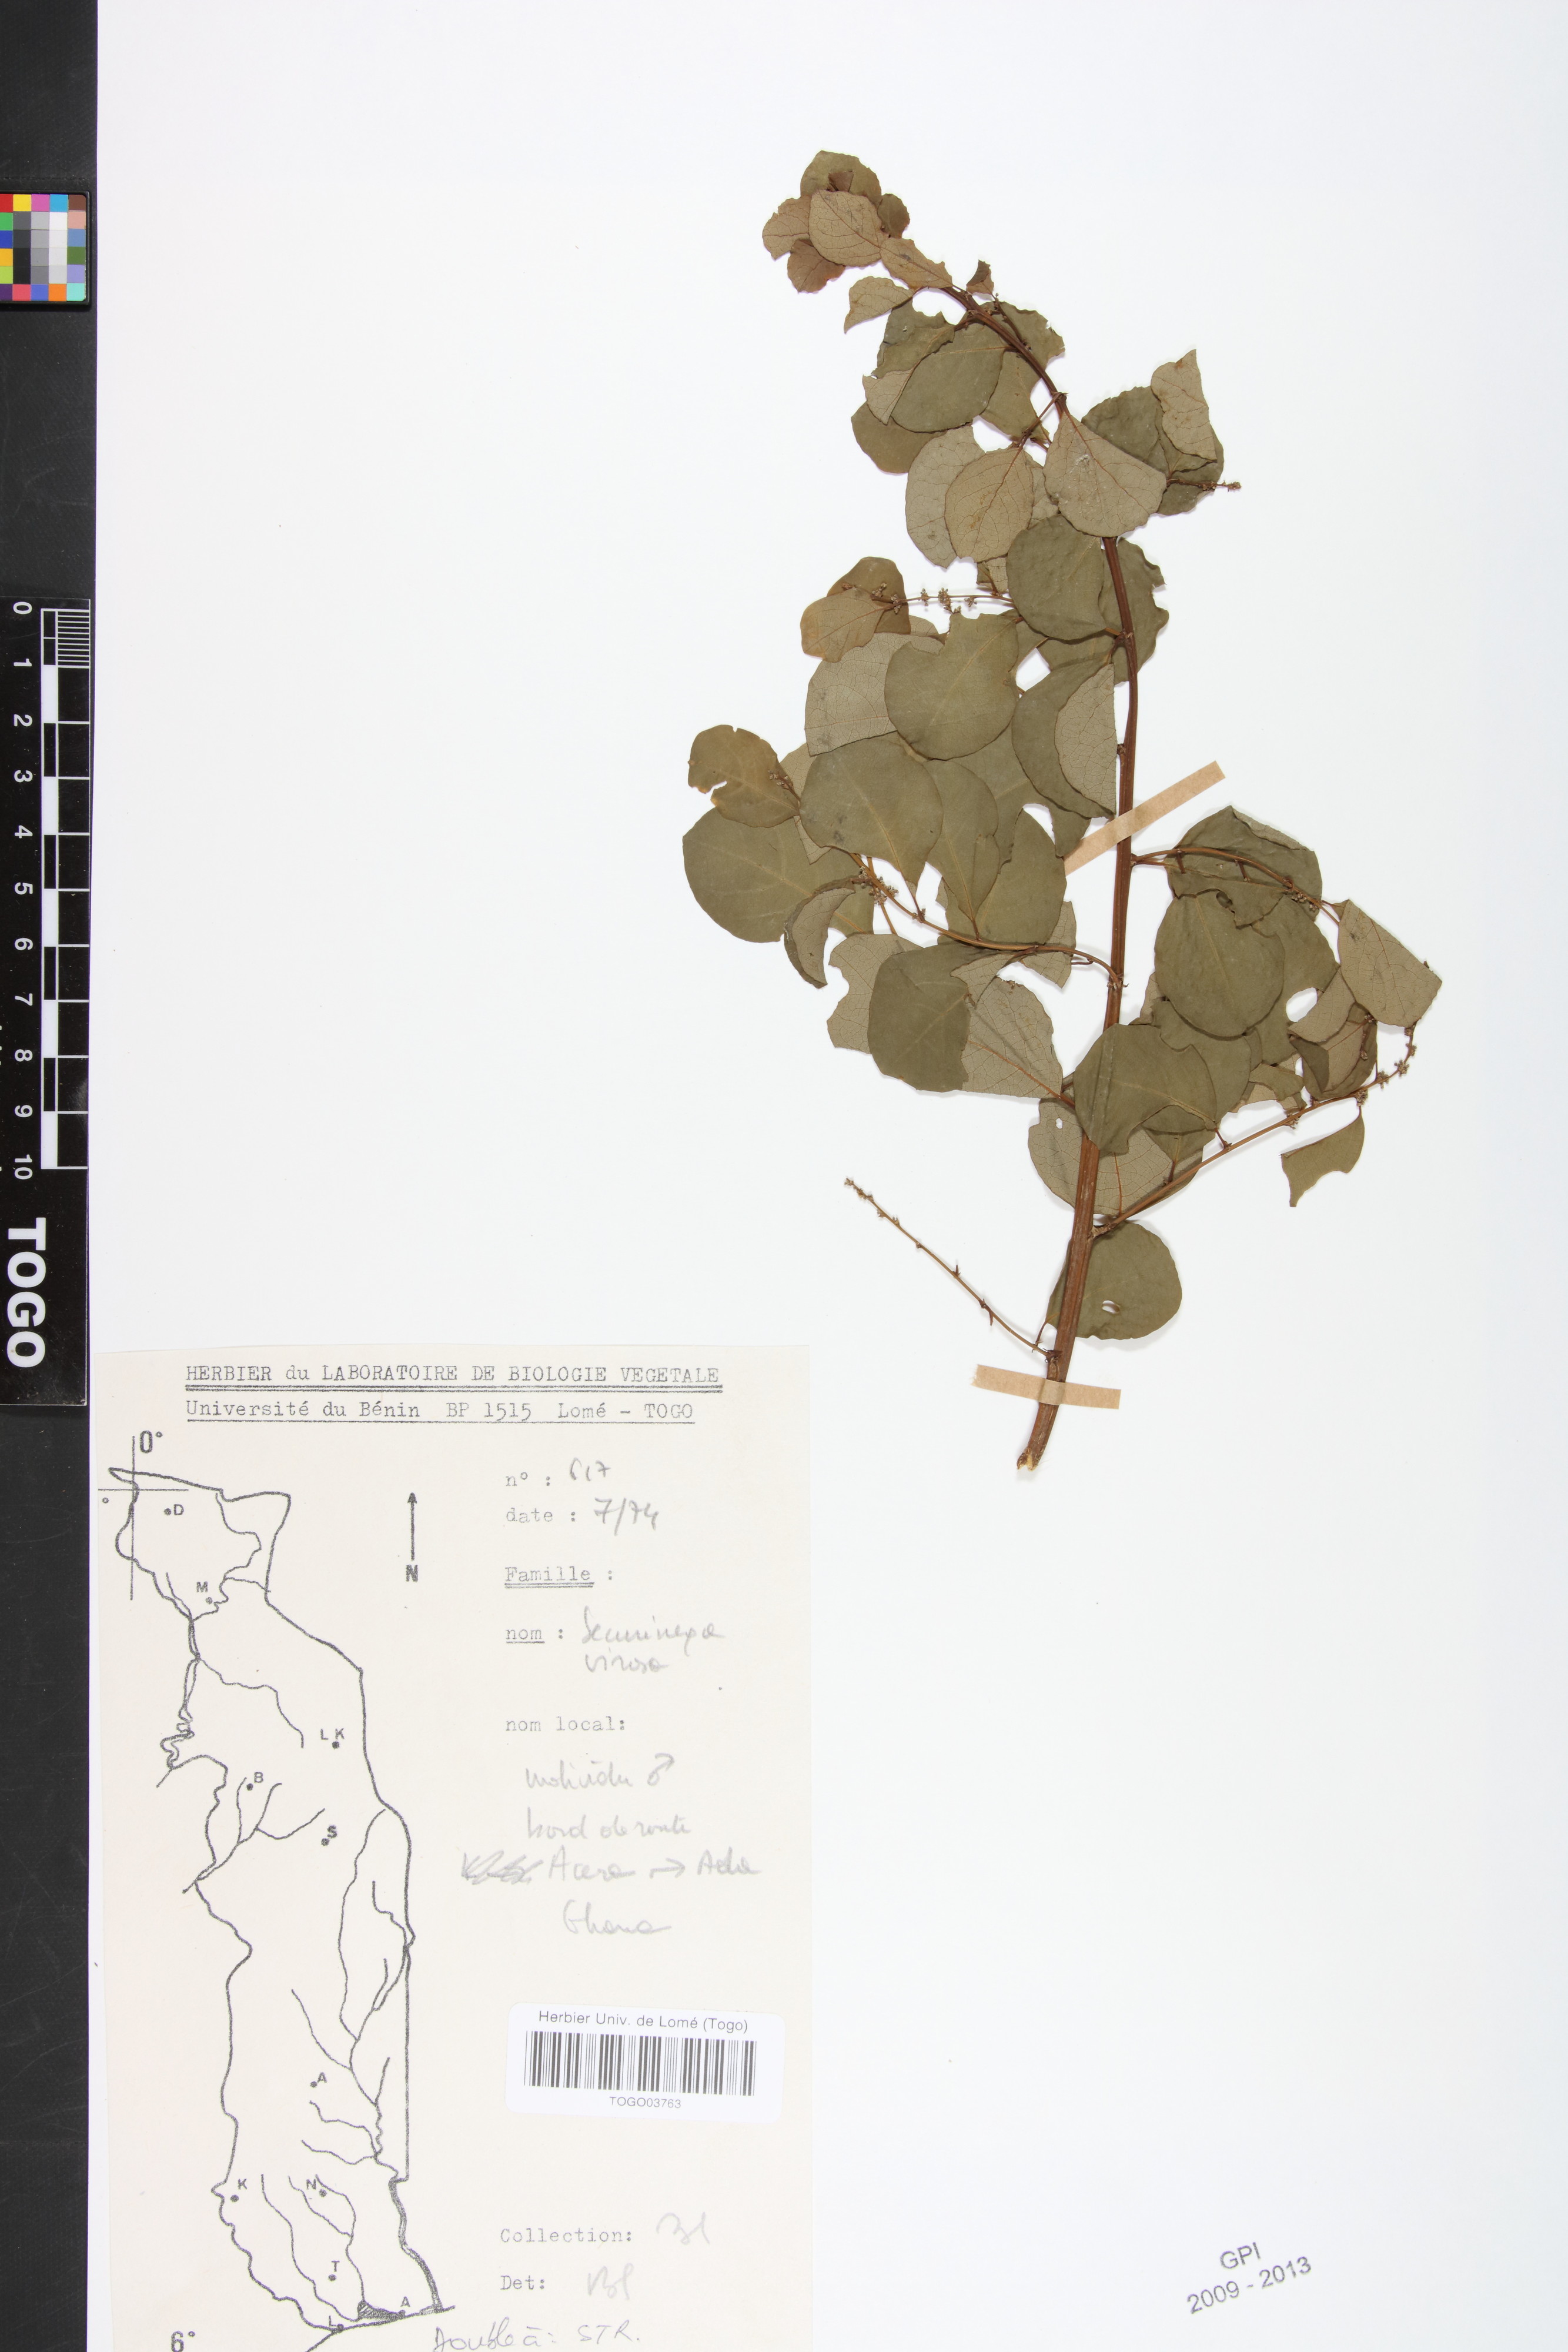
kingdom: Plantae
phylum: Tracheophyta
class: Magnoliopsida
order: Malpighiales
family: Phyllanthaceae
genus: Flueggea
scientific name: Flueggea virosa
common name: Common bushweed
